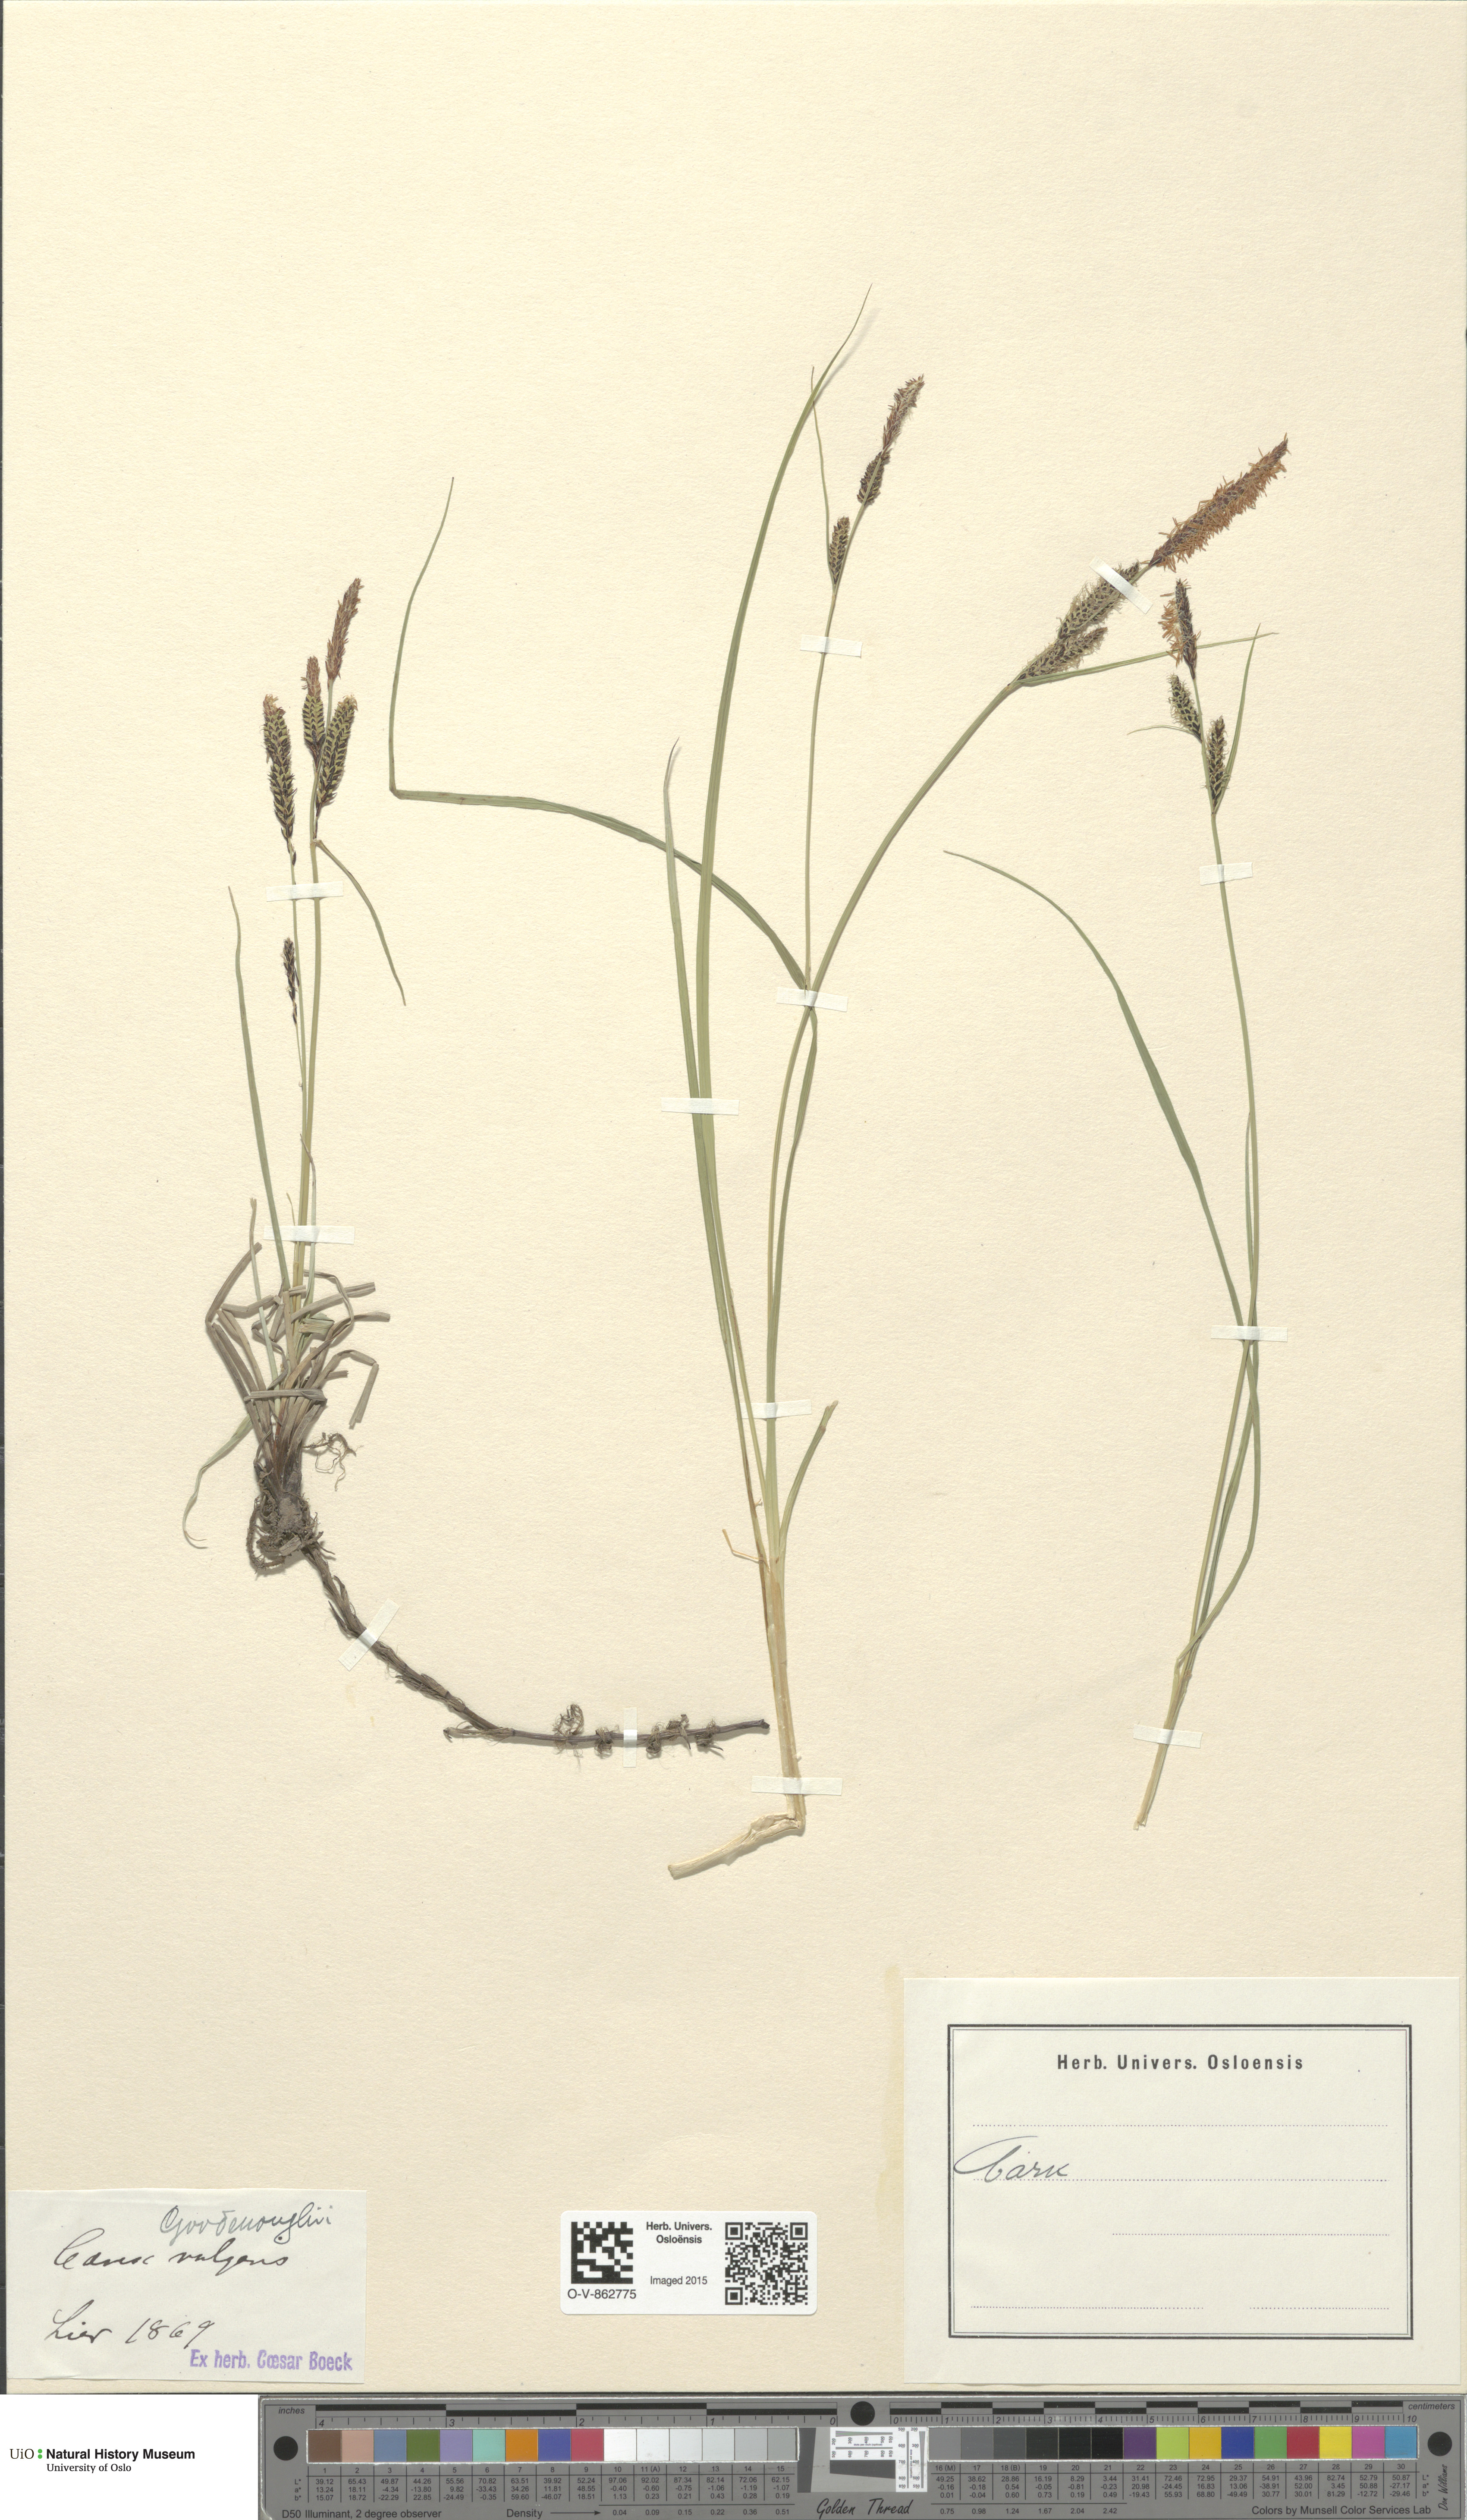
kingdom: Plantae
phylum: Tracheophyta
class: Liliopsida
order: Poales
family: Cyperaceae
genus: Carex
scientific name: Carex nigra
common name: Common sedge
